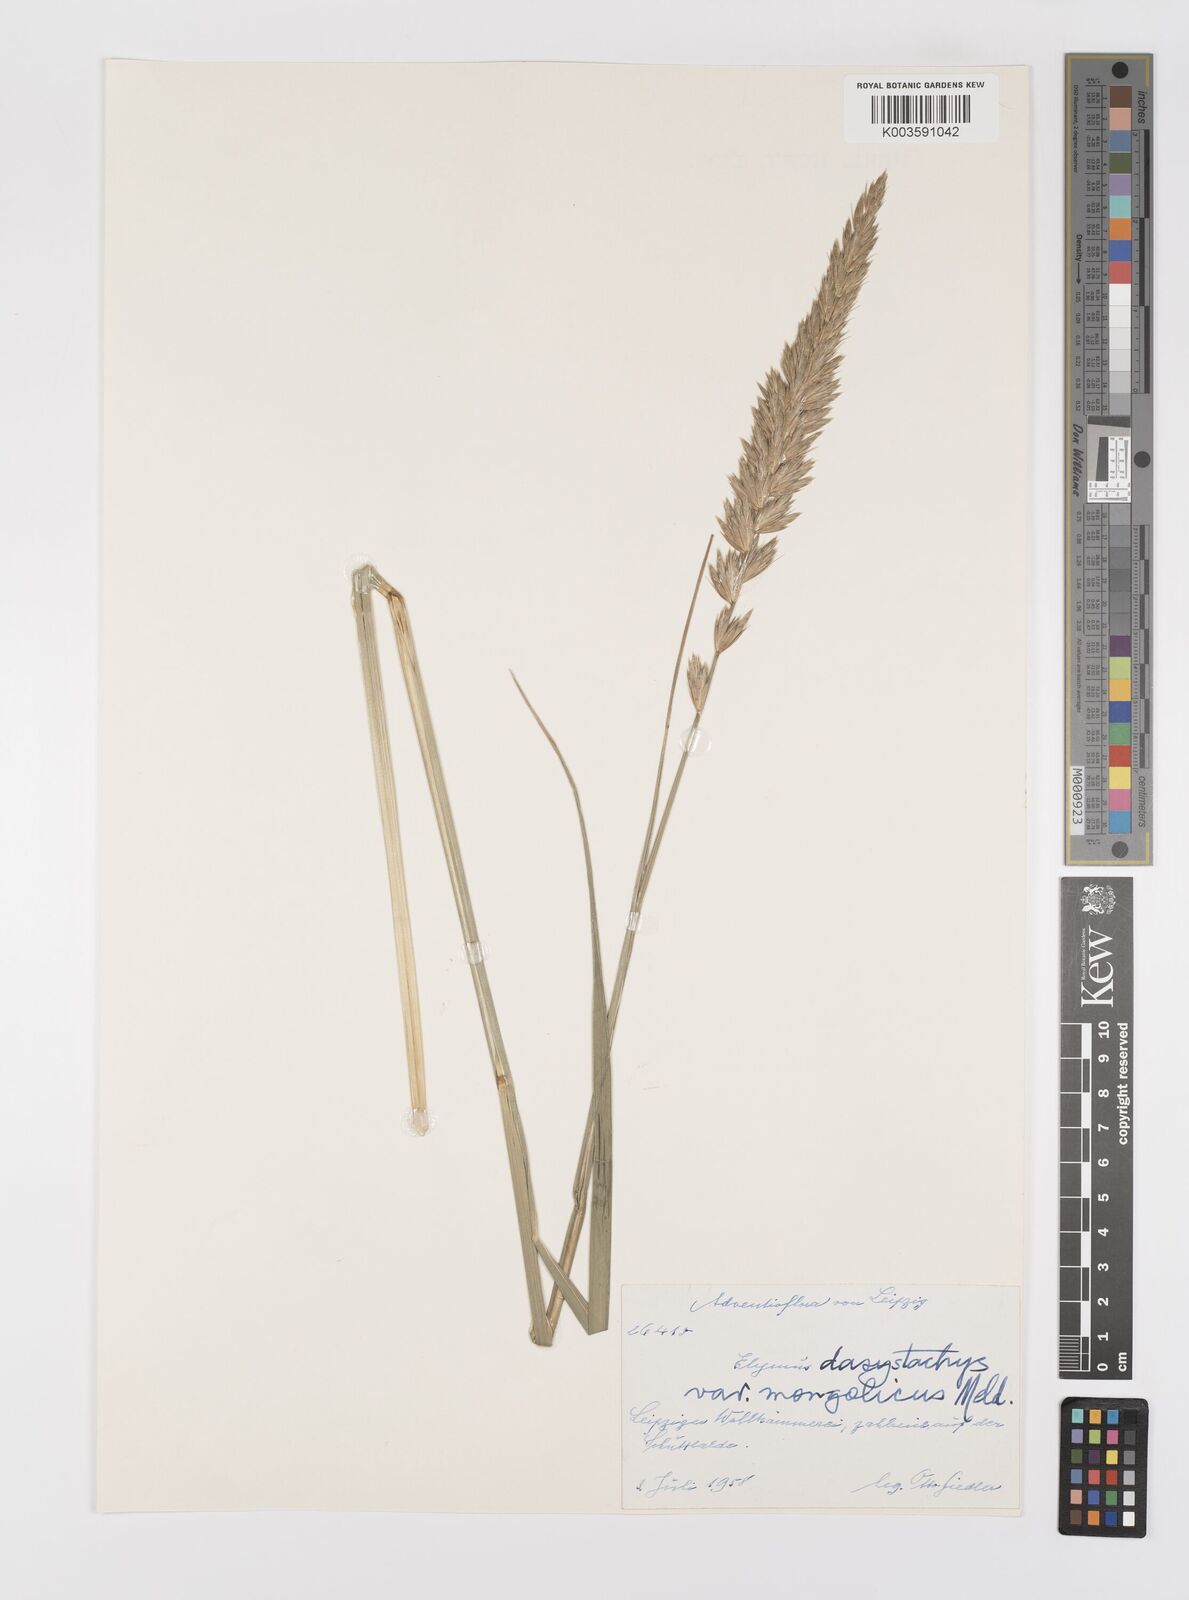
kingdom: Plantae
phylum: Tracheophyta
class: Liliopsida
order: Poales
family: Poaceae
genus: Leymus
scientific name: Leymus secalinus
